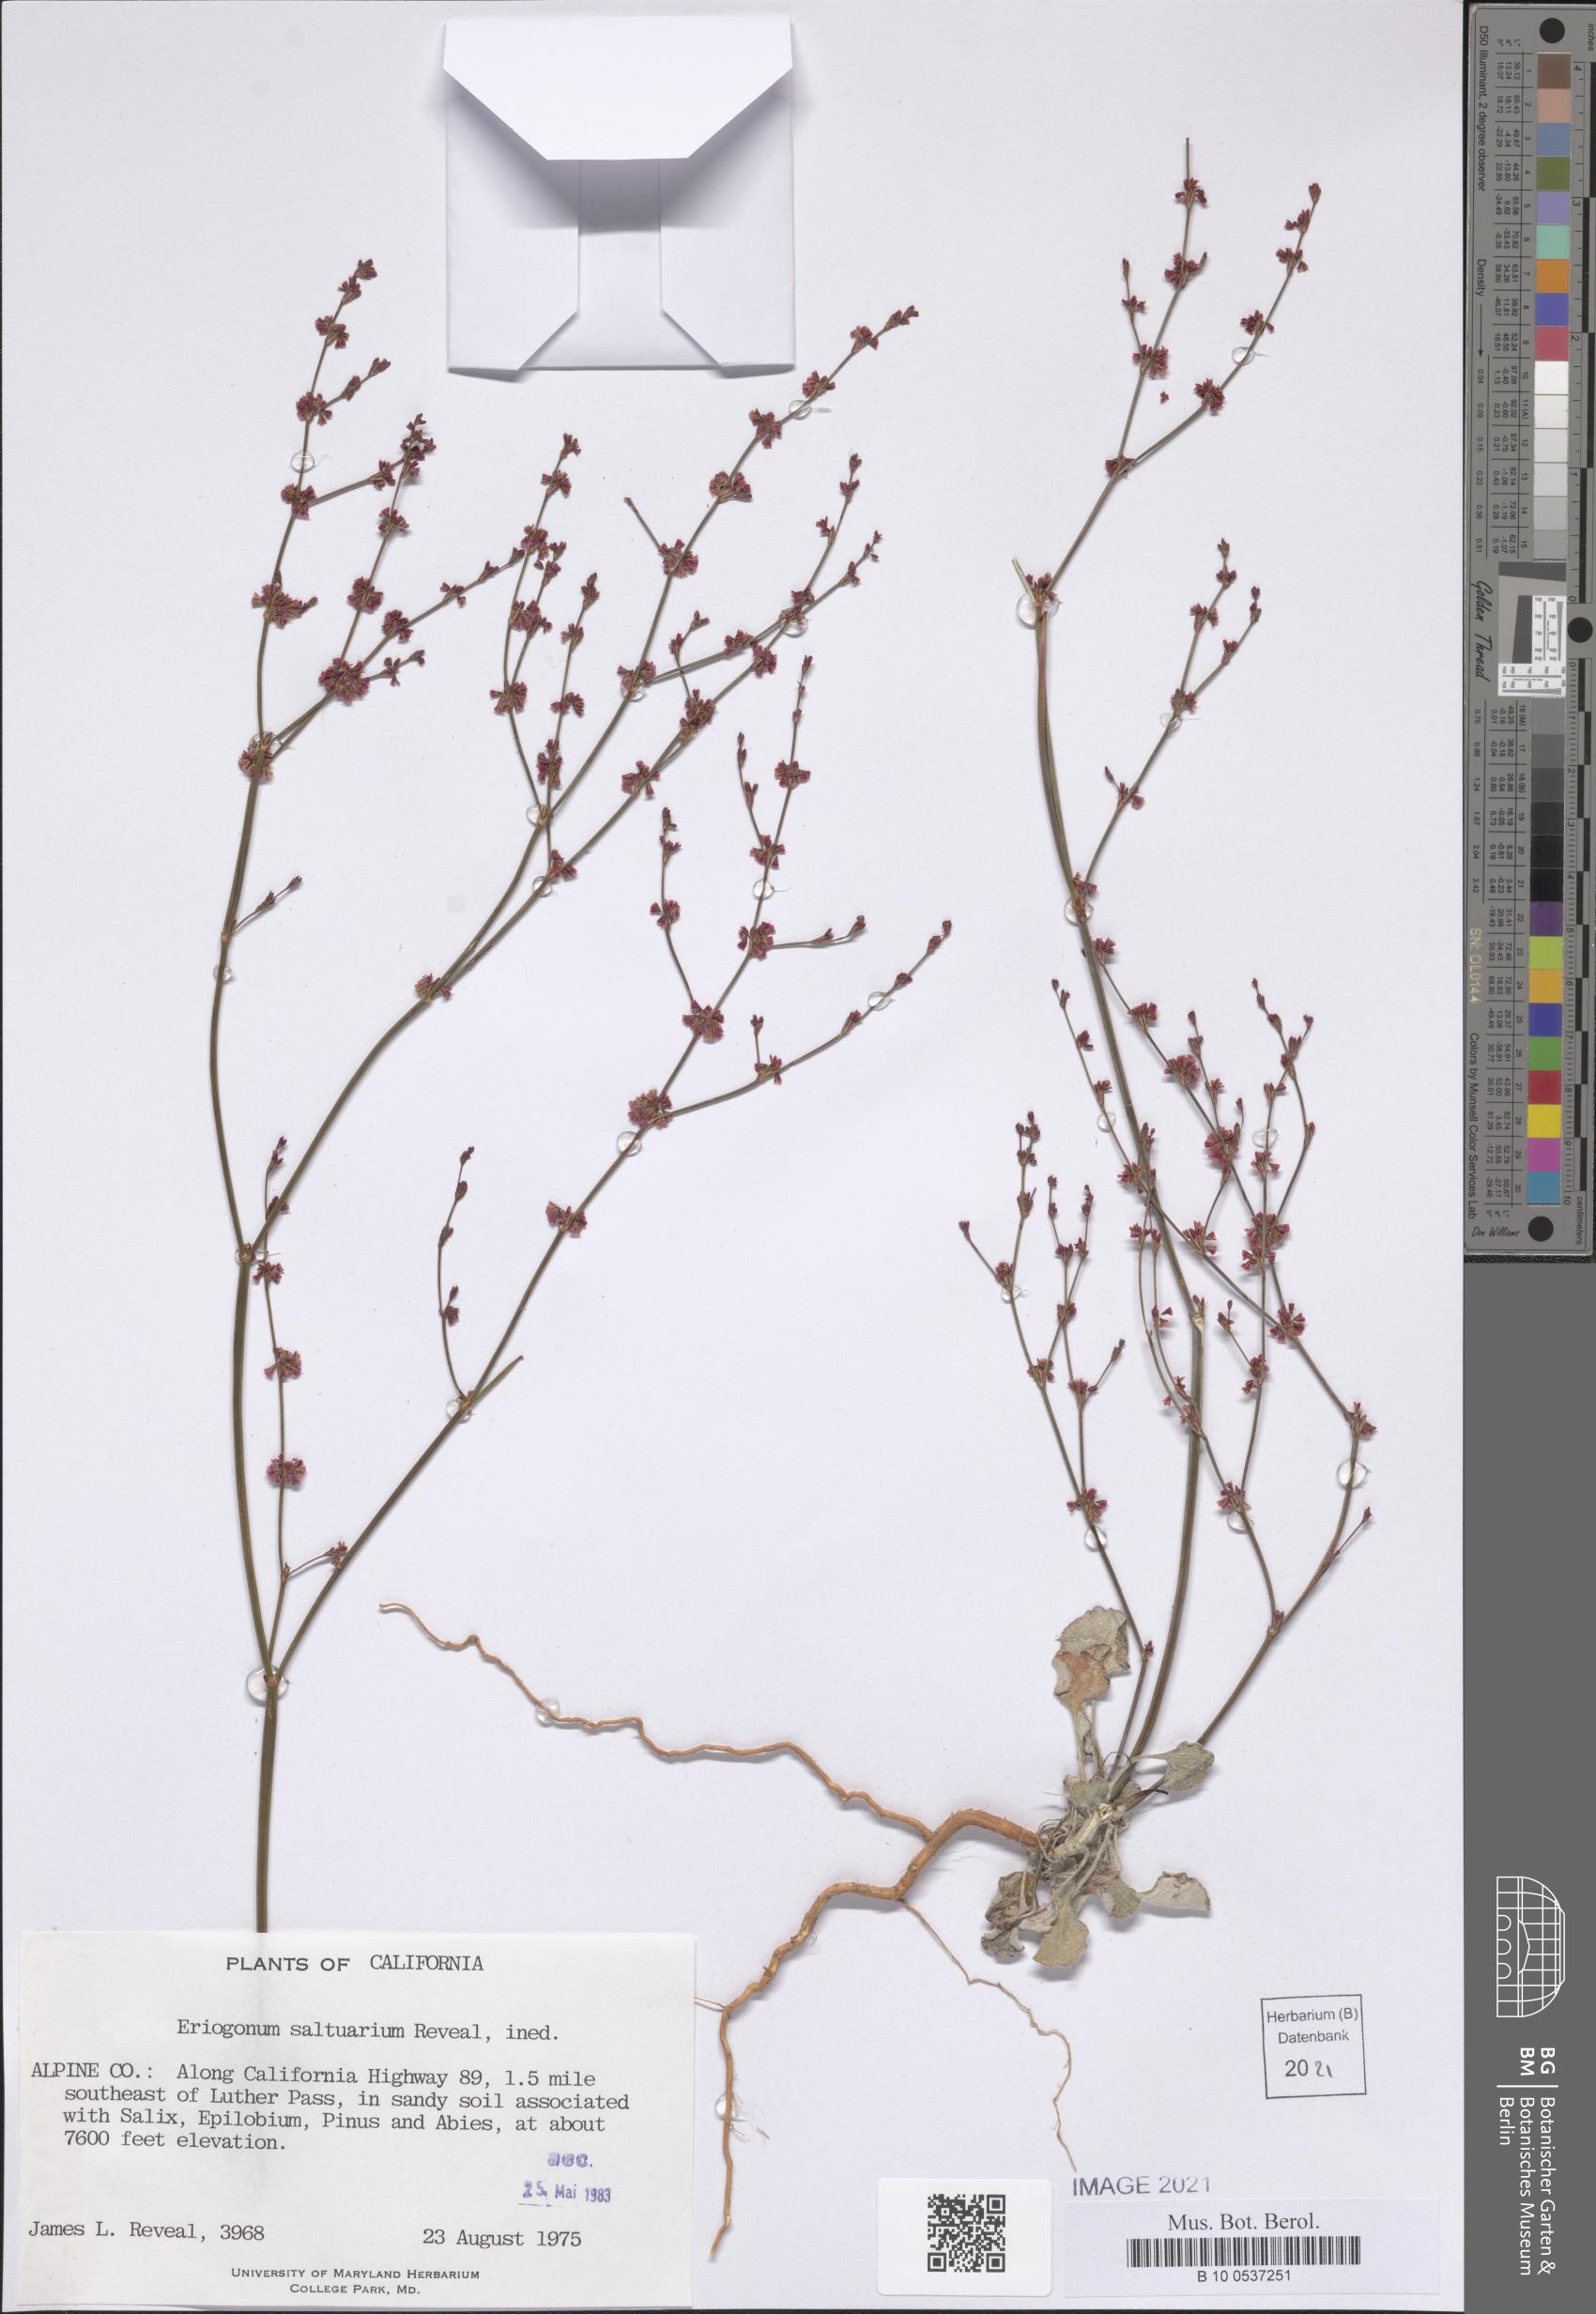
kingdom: Plantae
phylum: Tracheophyta
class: Magnoliopsida
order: Caryophyllales
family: Polygonaceae
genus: Eriogonum
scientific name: Eriogonum luteolum
